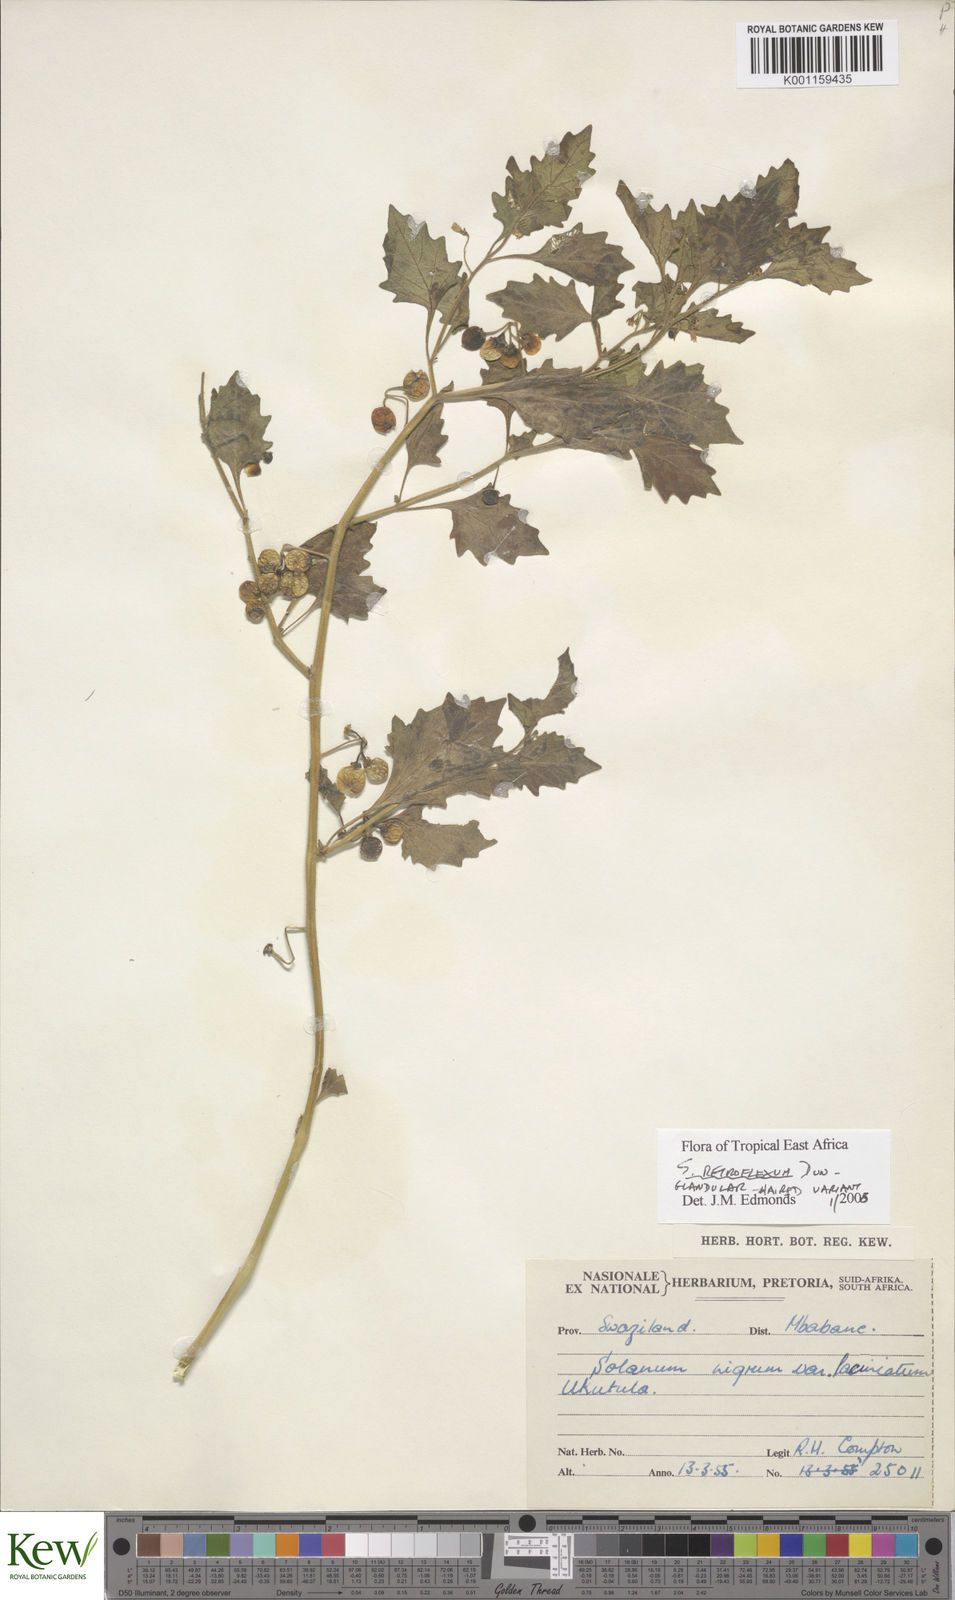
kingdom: Plantae
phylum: Tracheophyta
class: Magnoliopsida
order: Solanales
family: Solanaceae
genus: Solanum
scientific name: Solanum retroflexum
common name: Wonderberry
